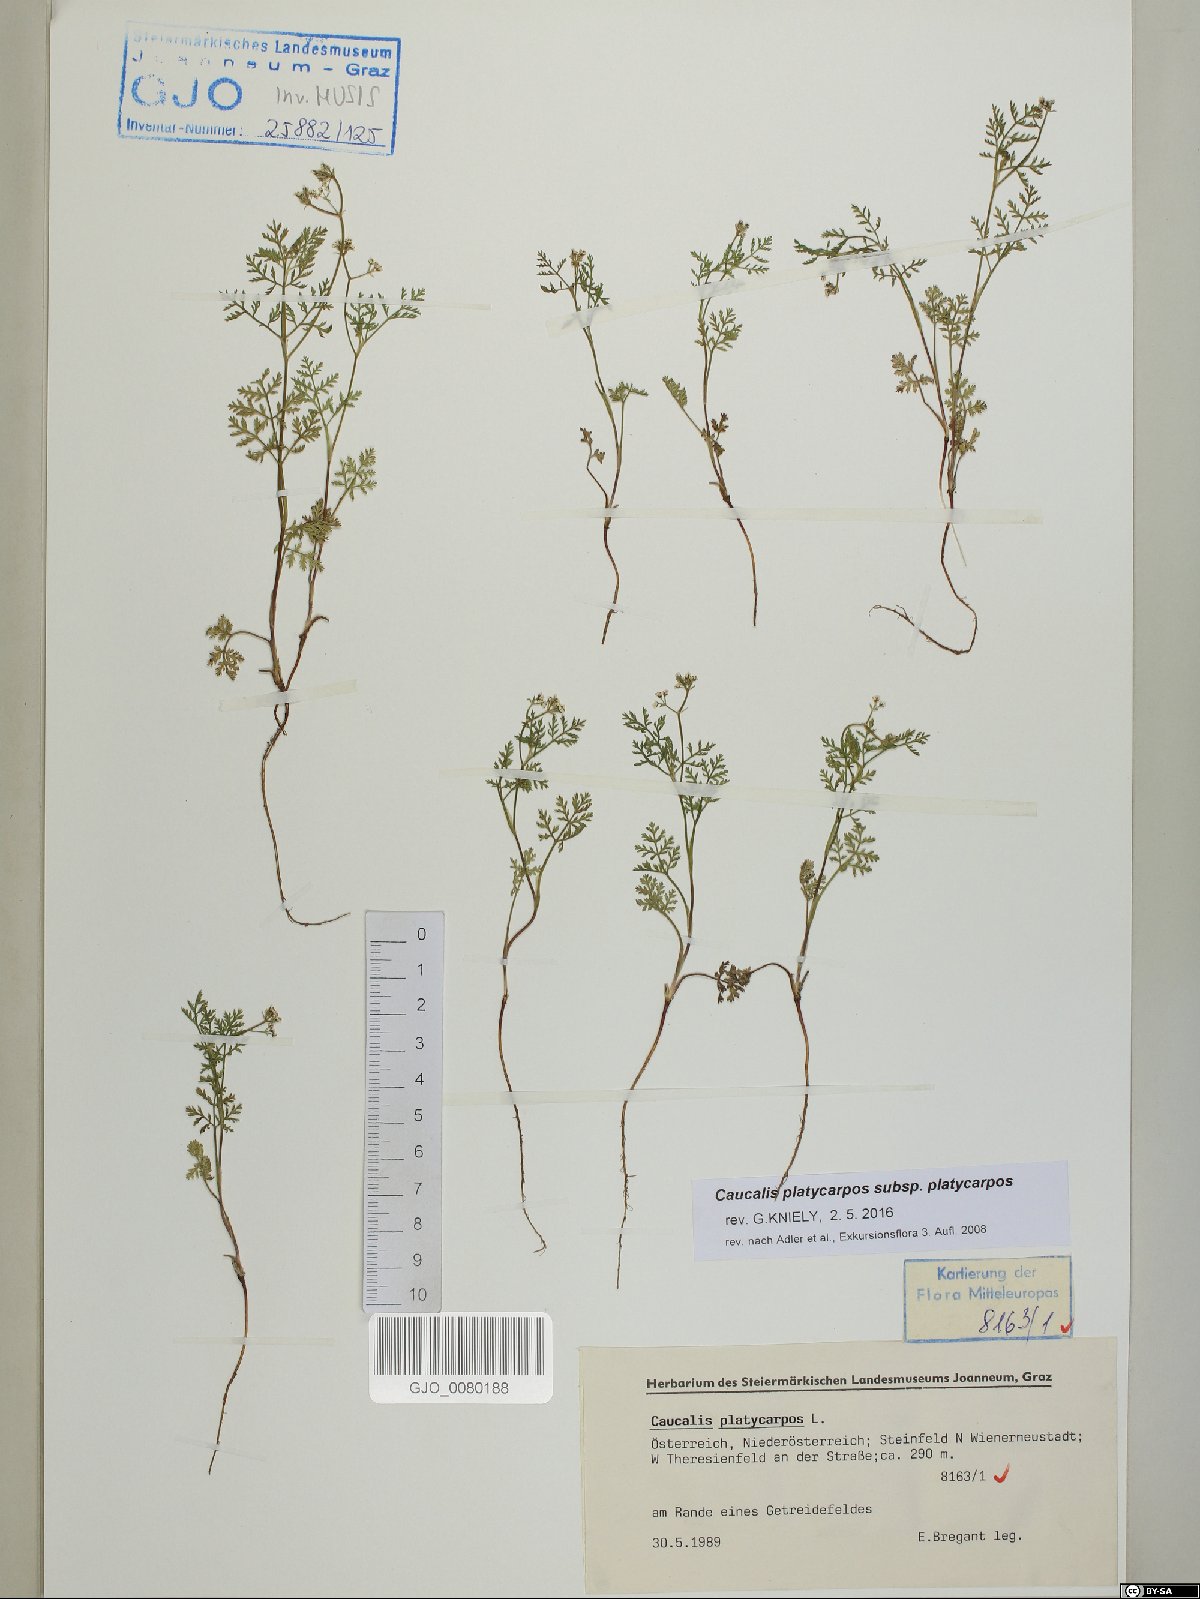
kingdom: Plantae
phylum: Tracheophyta
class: Magnoliopsida
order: Apiales
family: Apiaceae
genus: Caucalis
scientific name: Caucalis platycarpos
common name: Small bur-parsley
